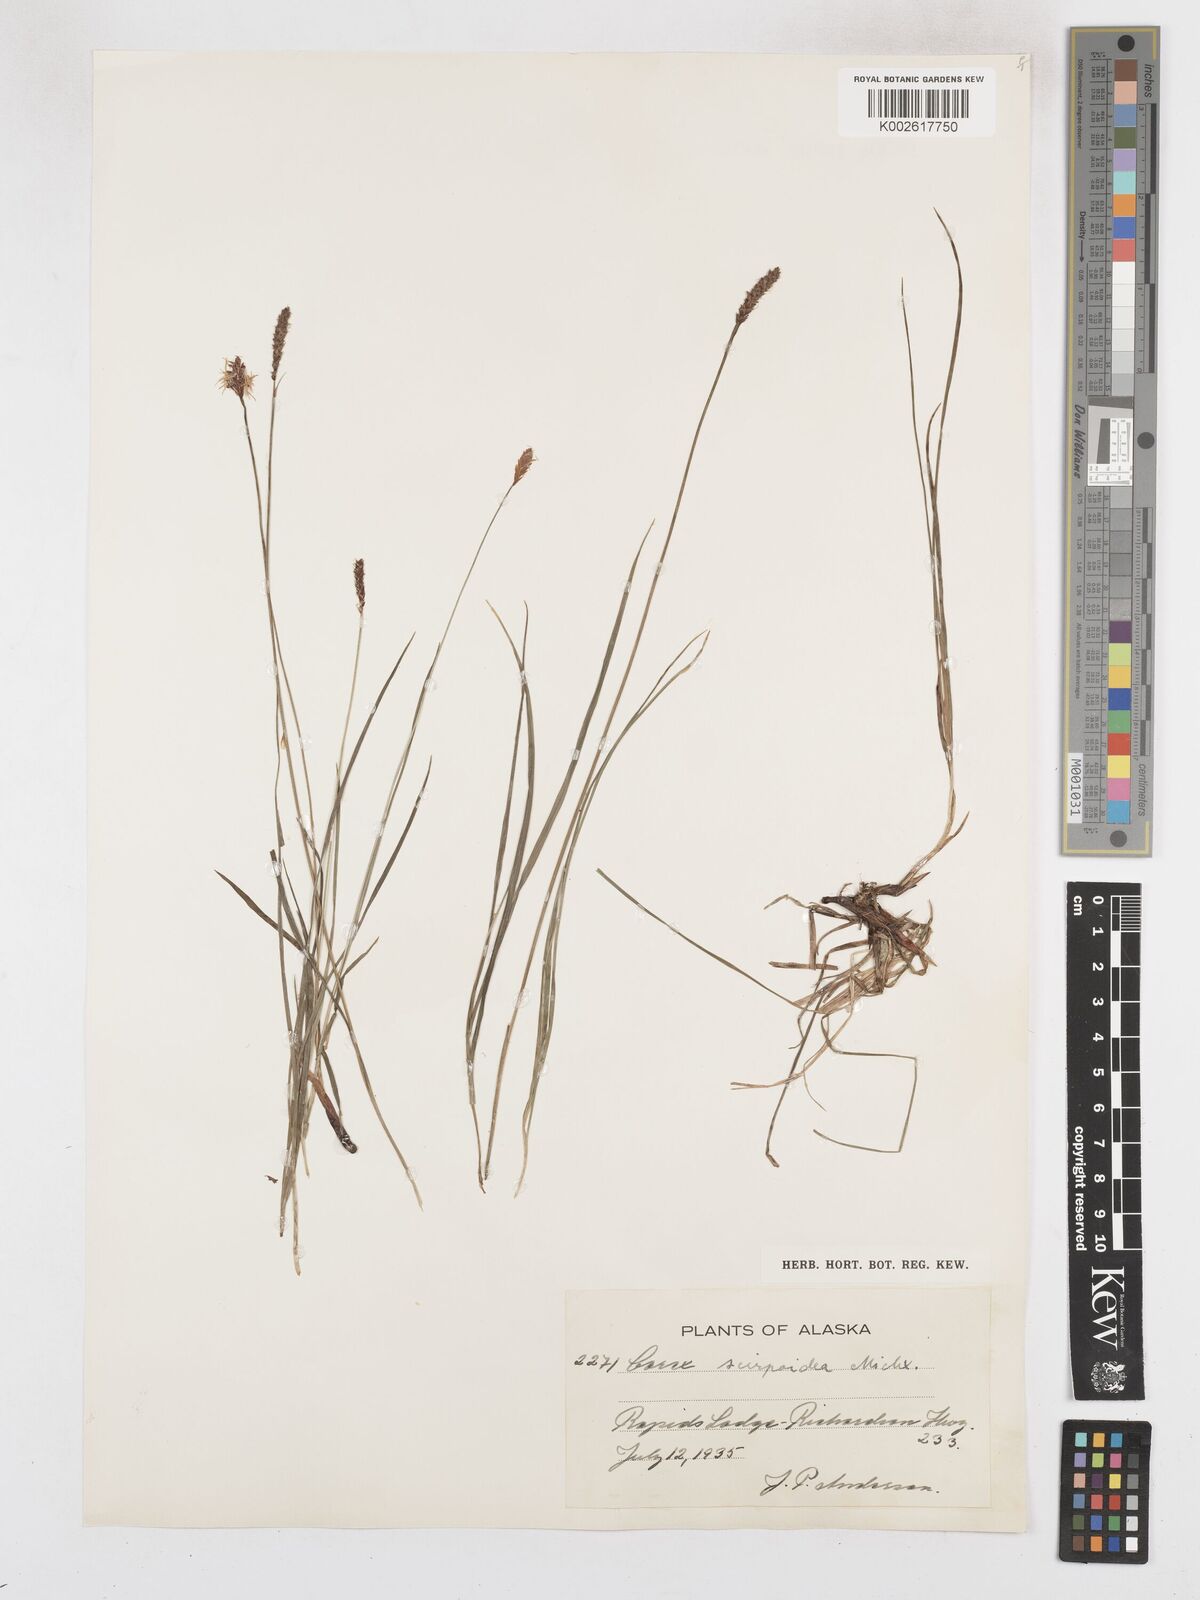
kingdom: Plantae
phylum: Tracheophyta
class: Liliopsida
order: Poales
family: Cyperaceae
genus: Carex
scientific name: Carex scirpoidea
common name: Canada single-spike sedge
